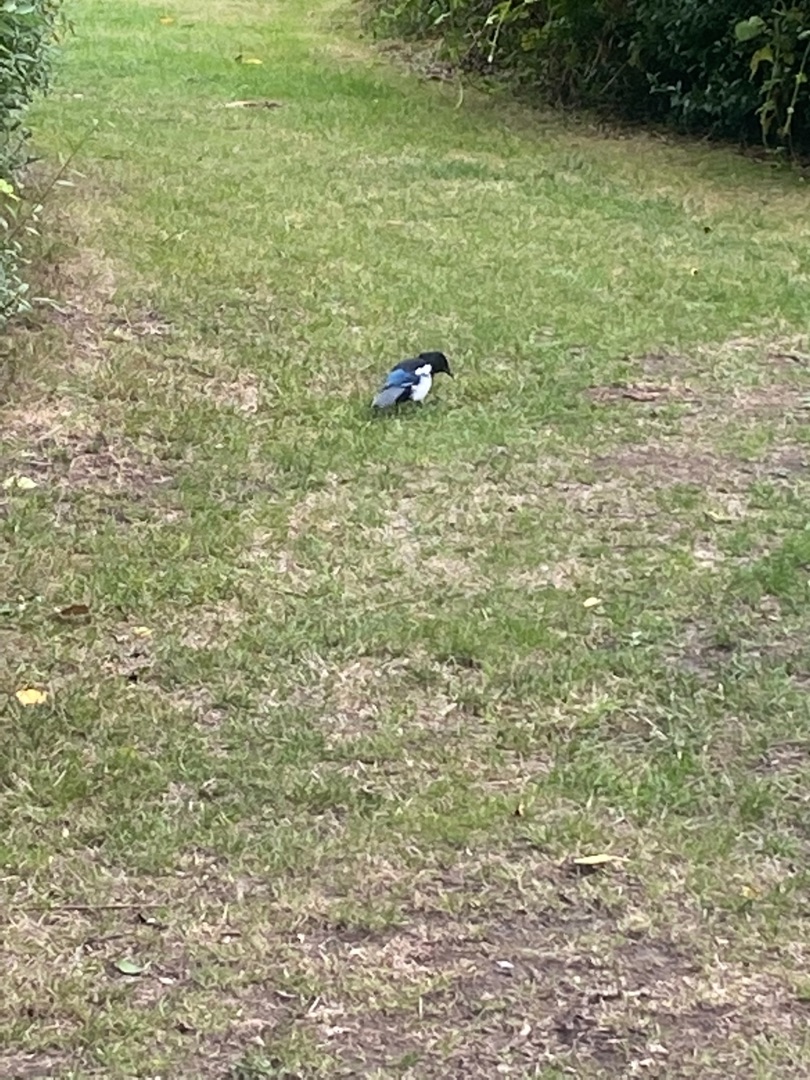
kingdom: Animalia
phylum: Chordata
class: Aves
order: Passeriformes
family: Corvidae
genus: Pica
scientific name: Pica pica
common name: Husskade
